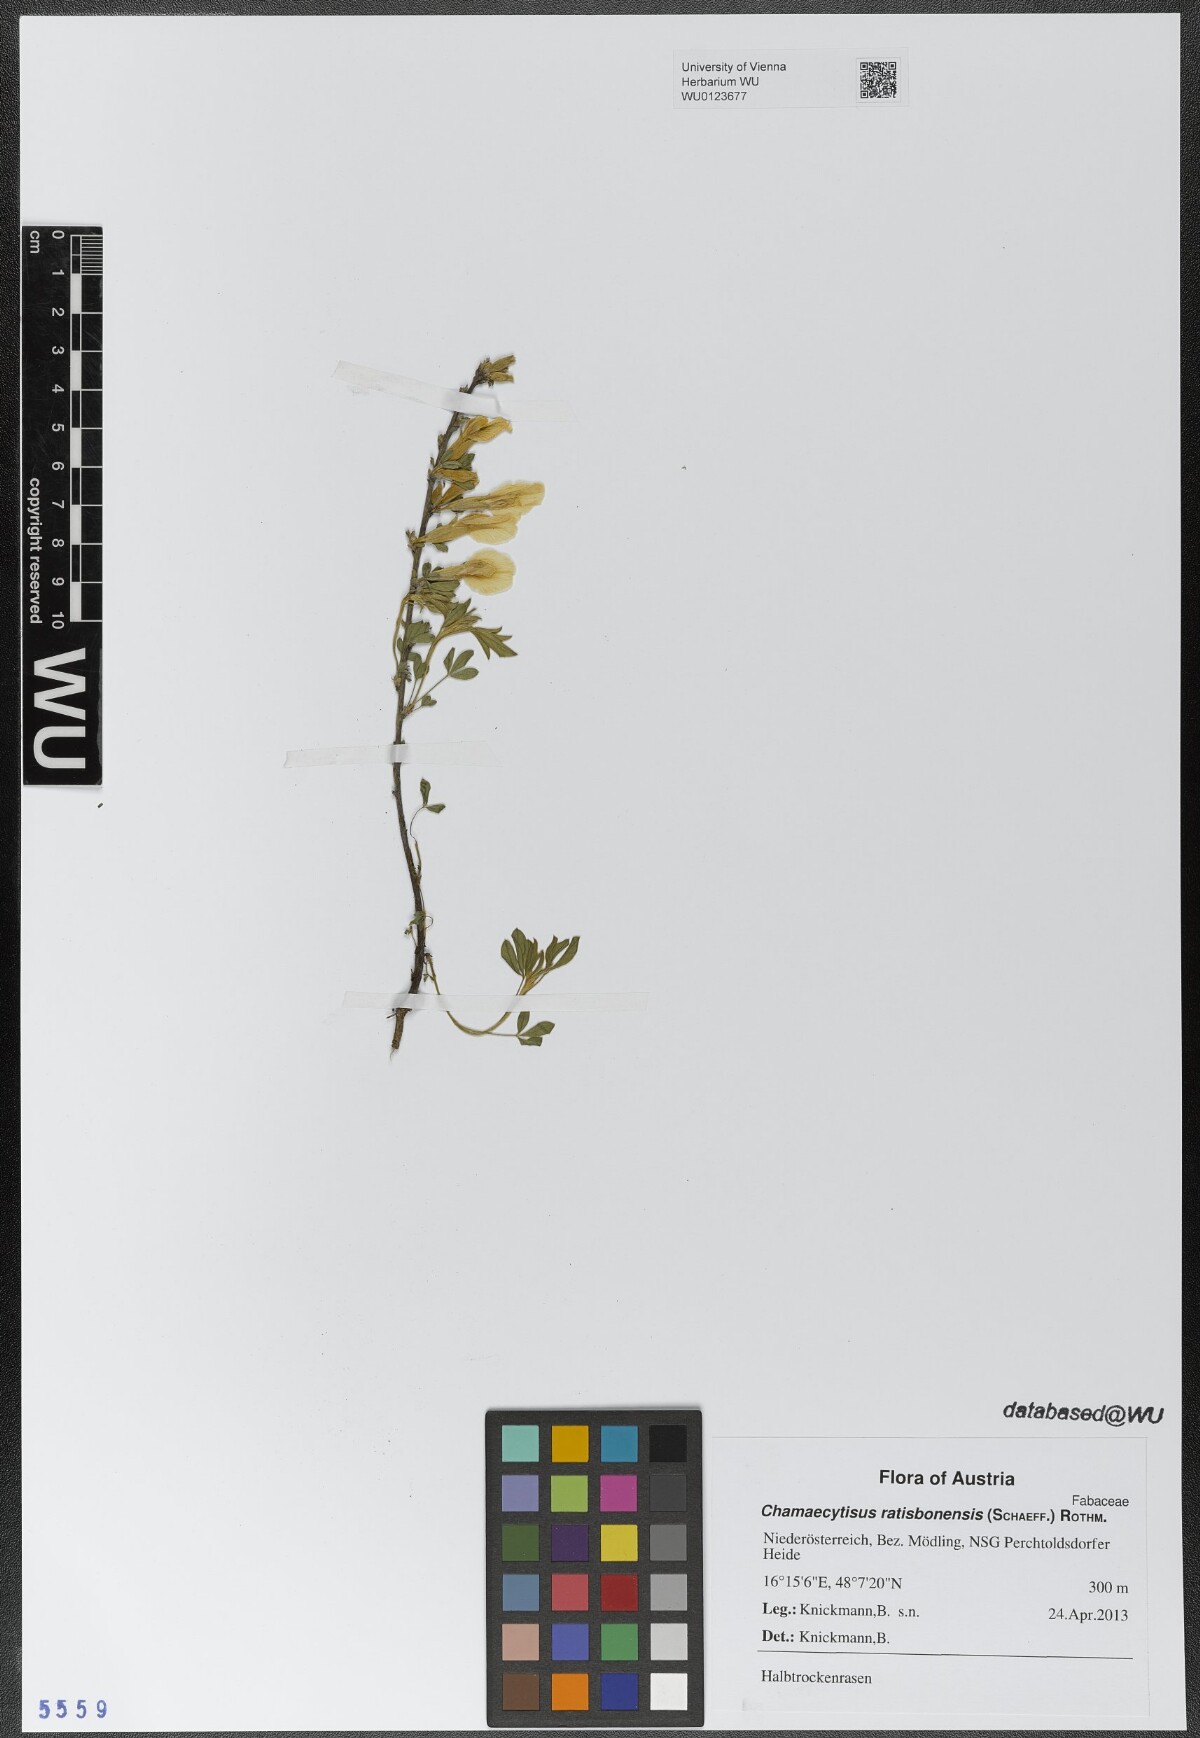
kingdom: Plantae
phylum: Tracheophyta
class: Magnoliopsida
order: Fabales
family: Fabaceae
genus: Chamaecytisus
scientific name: Chamaecytisus ratisbonensis
